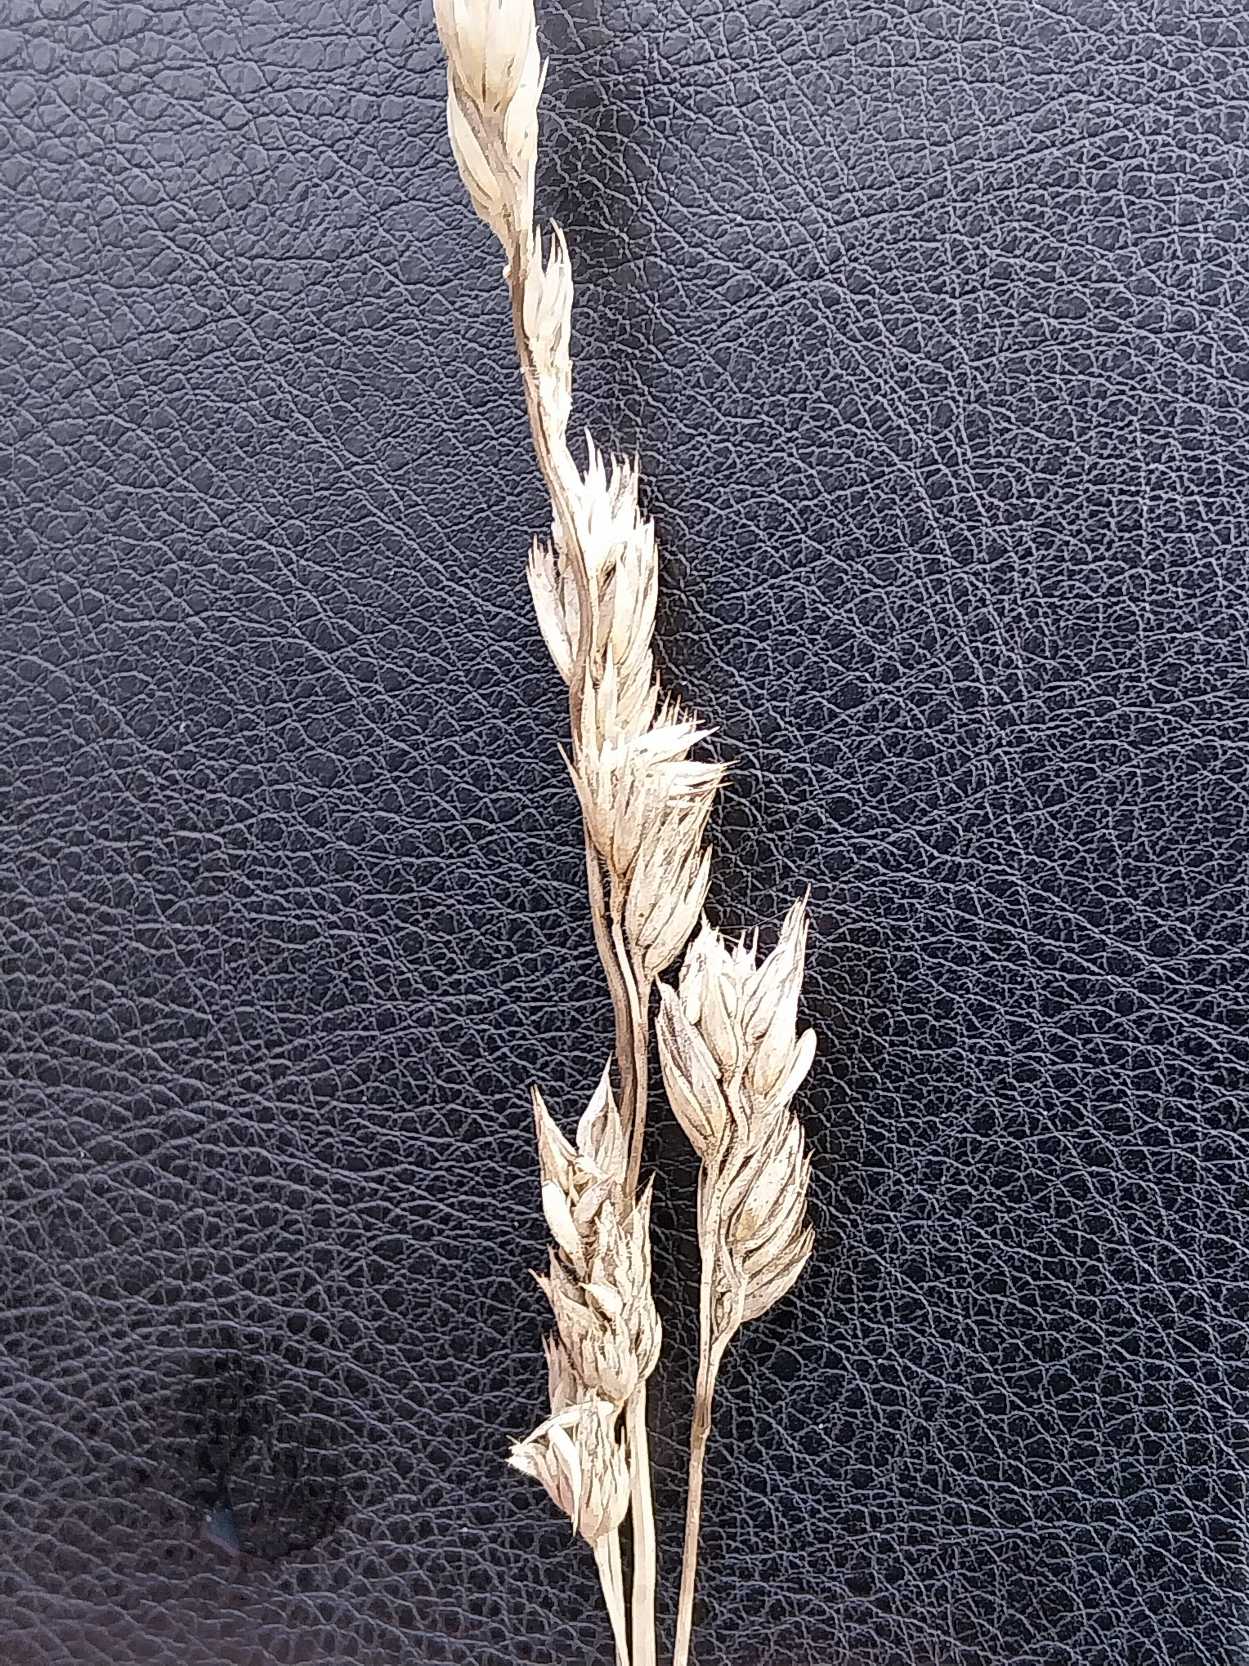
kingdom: Plantae
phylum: Tracheophyta
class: Liliopsida
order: Poales
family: Poaceae
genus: Dactylis
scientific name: Dactylis glomerata
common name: Almindelig hundegræs
